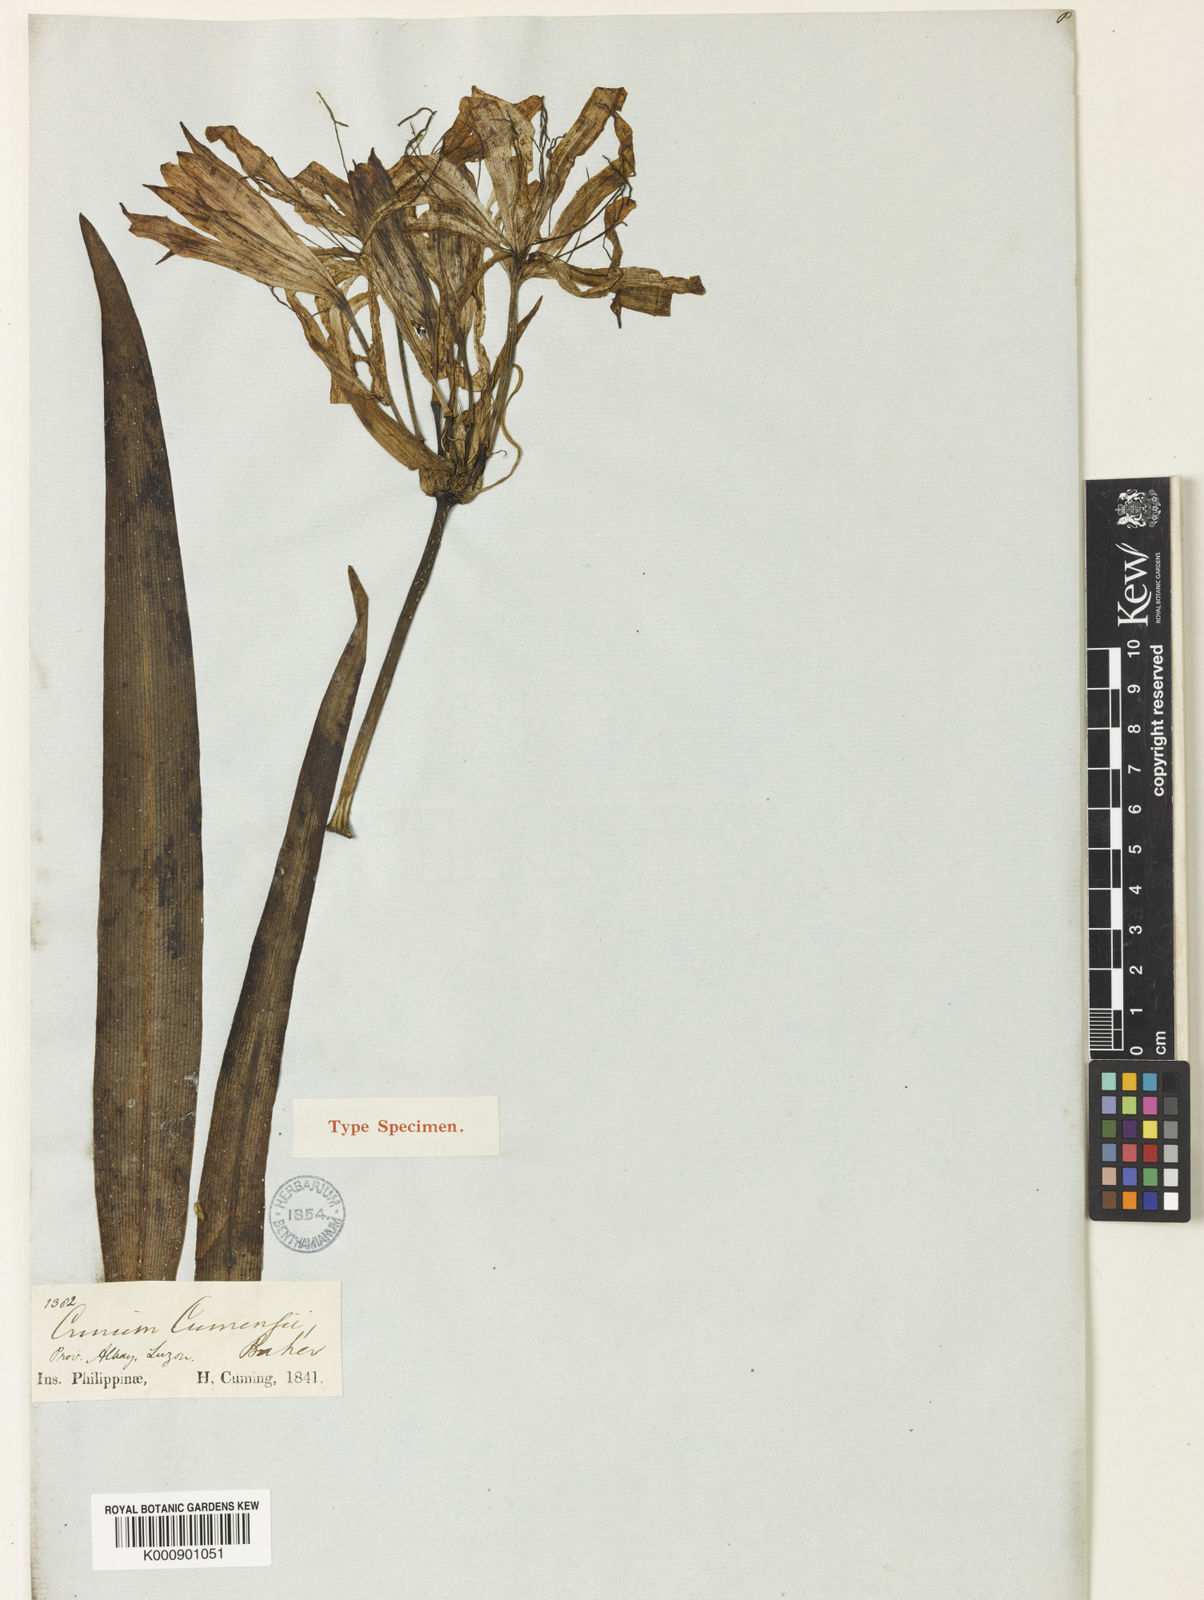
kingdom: Plantae
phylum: Tracheophyta
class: Liliopsida
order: Asparagales
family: Amaryllidaceae
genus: Crinum
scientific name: Crinum gracile
